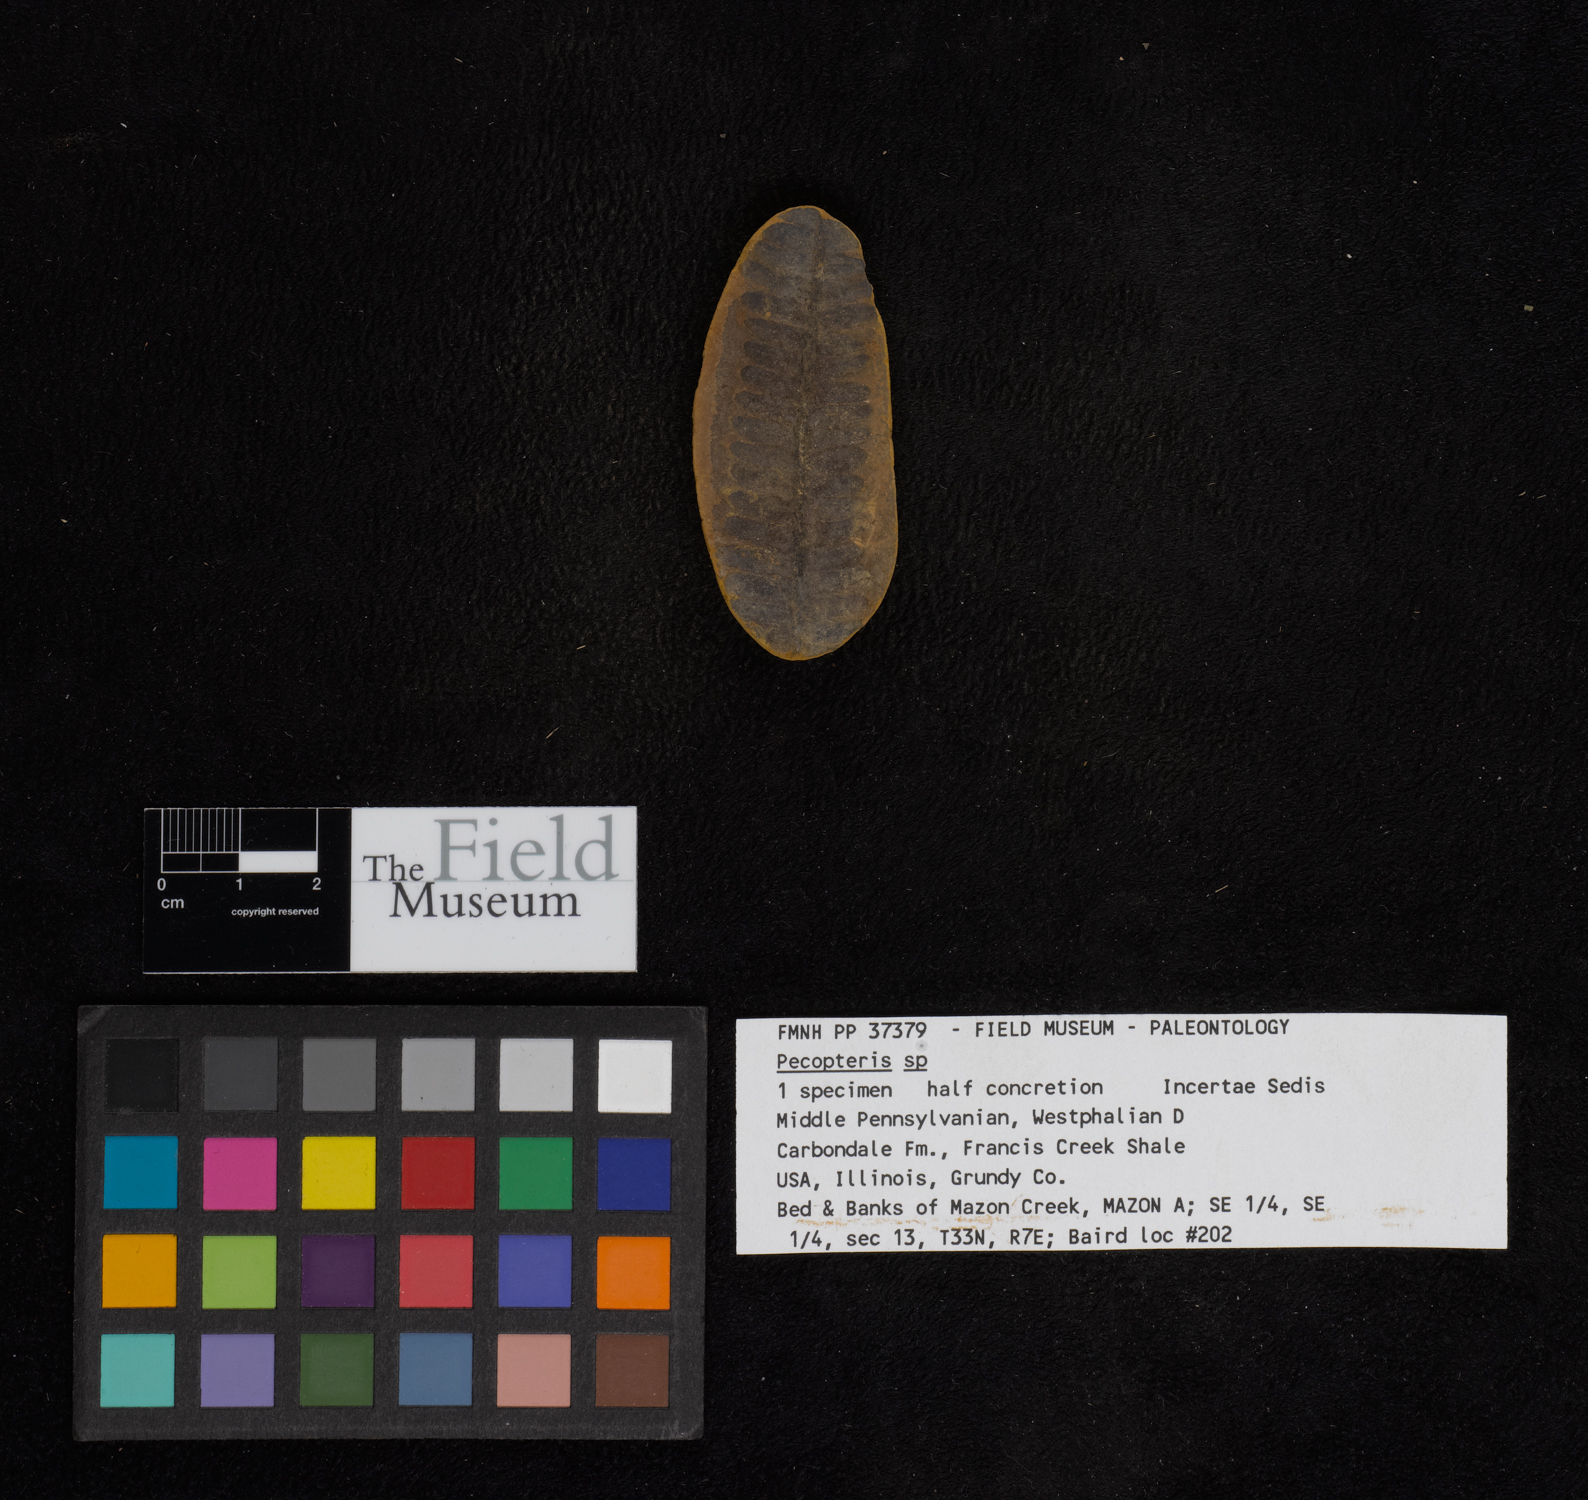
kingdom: Plantae
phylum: Tracheophyta
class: Polypodiopsida
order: Marattiales
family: Asterothecaceae
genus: Pecopteris
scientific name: Pecopteris
